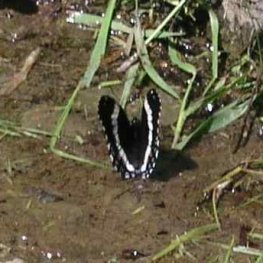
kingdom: Animalia
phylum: Arthropoda
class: Insecta
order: Lepidoptera
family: Nymphalidae
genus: Limenitis
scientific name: Limenitis arthemis
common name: Red-spotted Admiral
